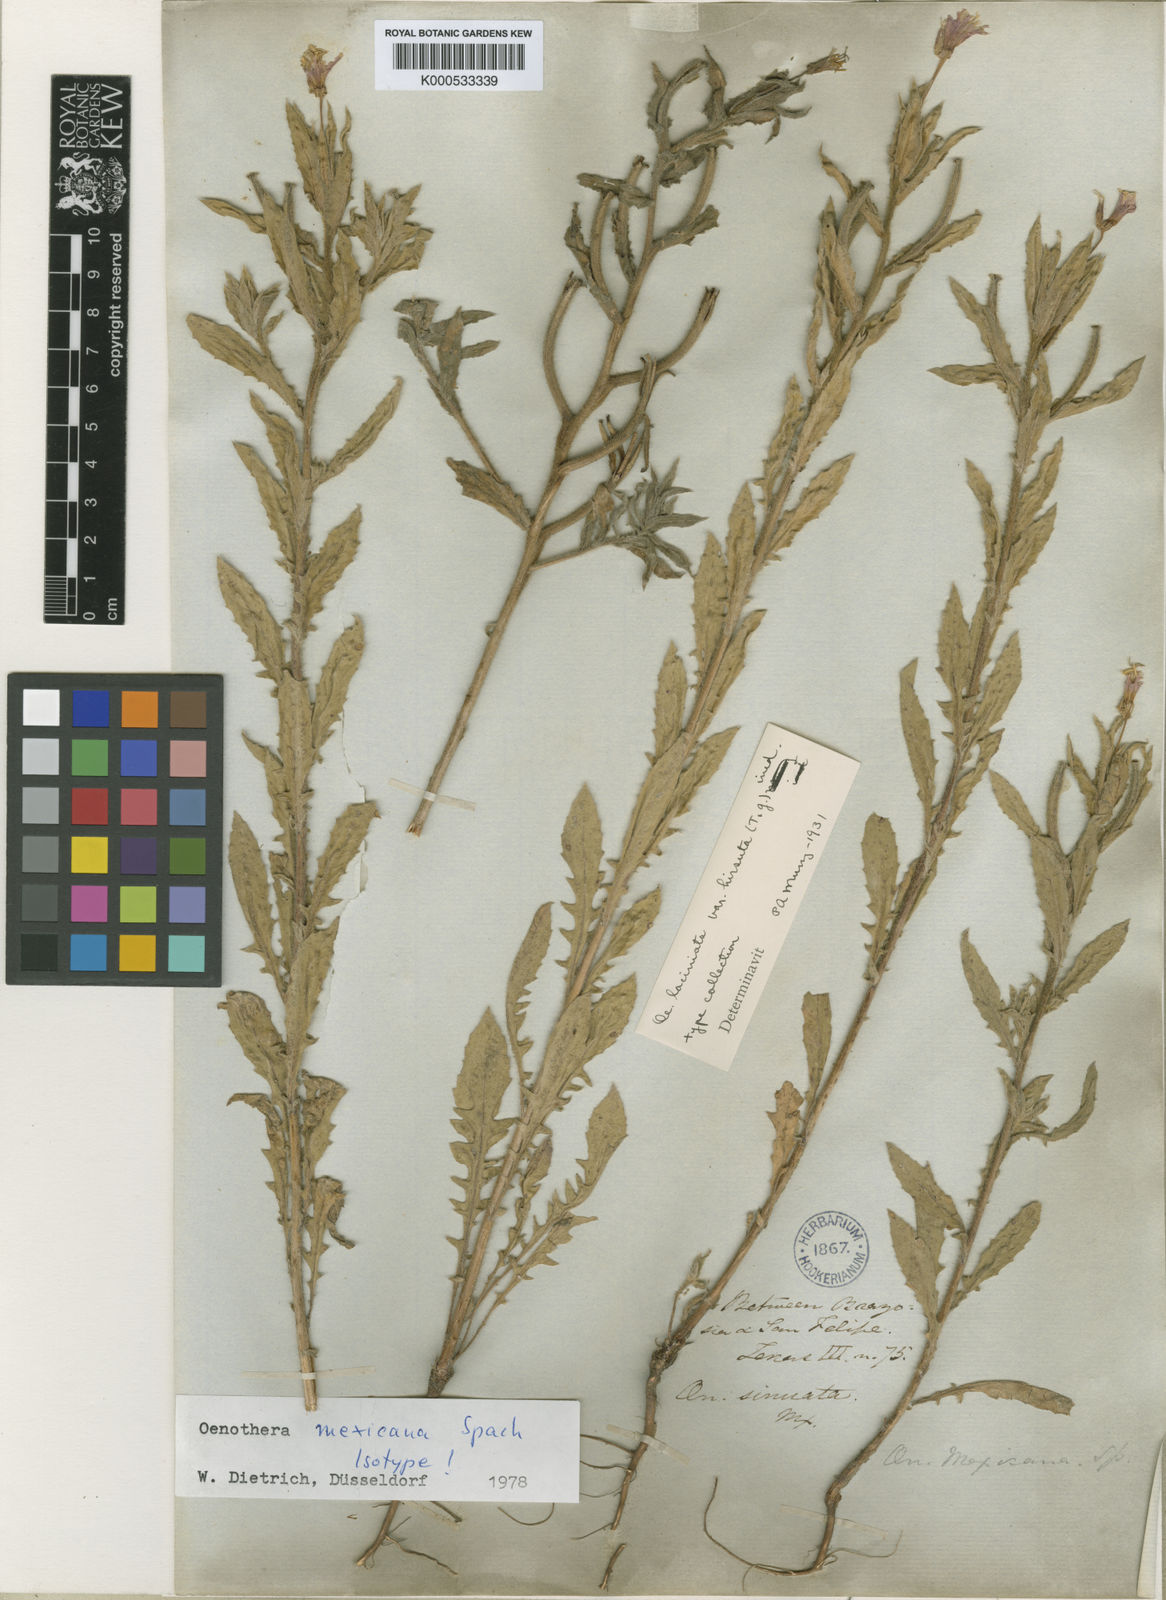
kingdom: Plantae
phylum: Tracheophyta
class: Magnoliopsida
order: Myrtales
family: Onagraceae
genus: Oenothera
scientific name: Oenothera mexicana
